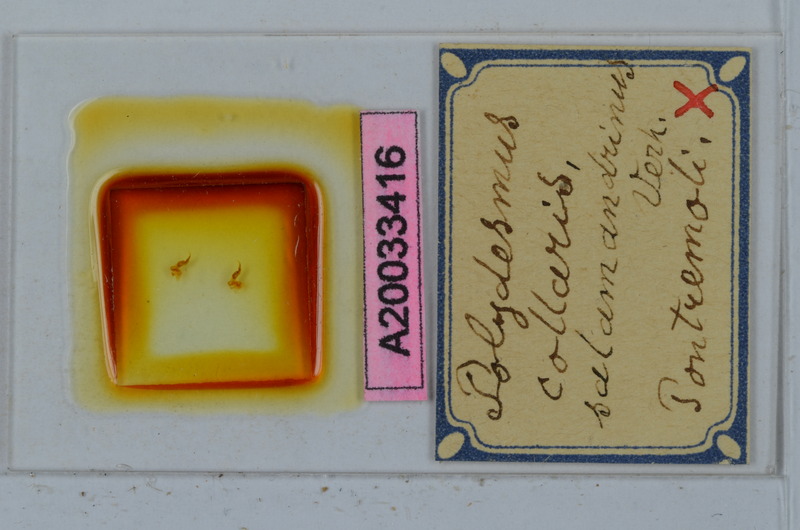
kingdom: Animalia
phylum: Arthropoda
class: Diplopoda
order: Polydesmida
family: Polydesmidae
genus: Polydesmus
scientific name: Polydesmus collaris
